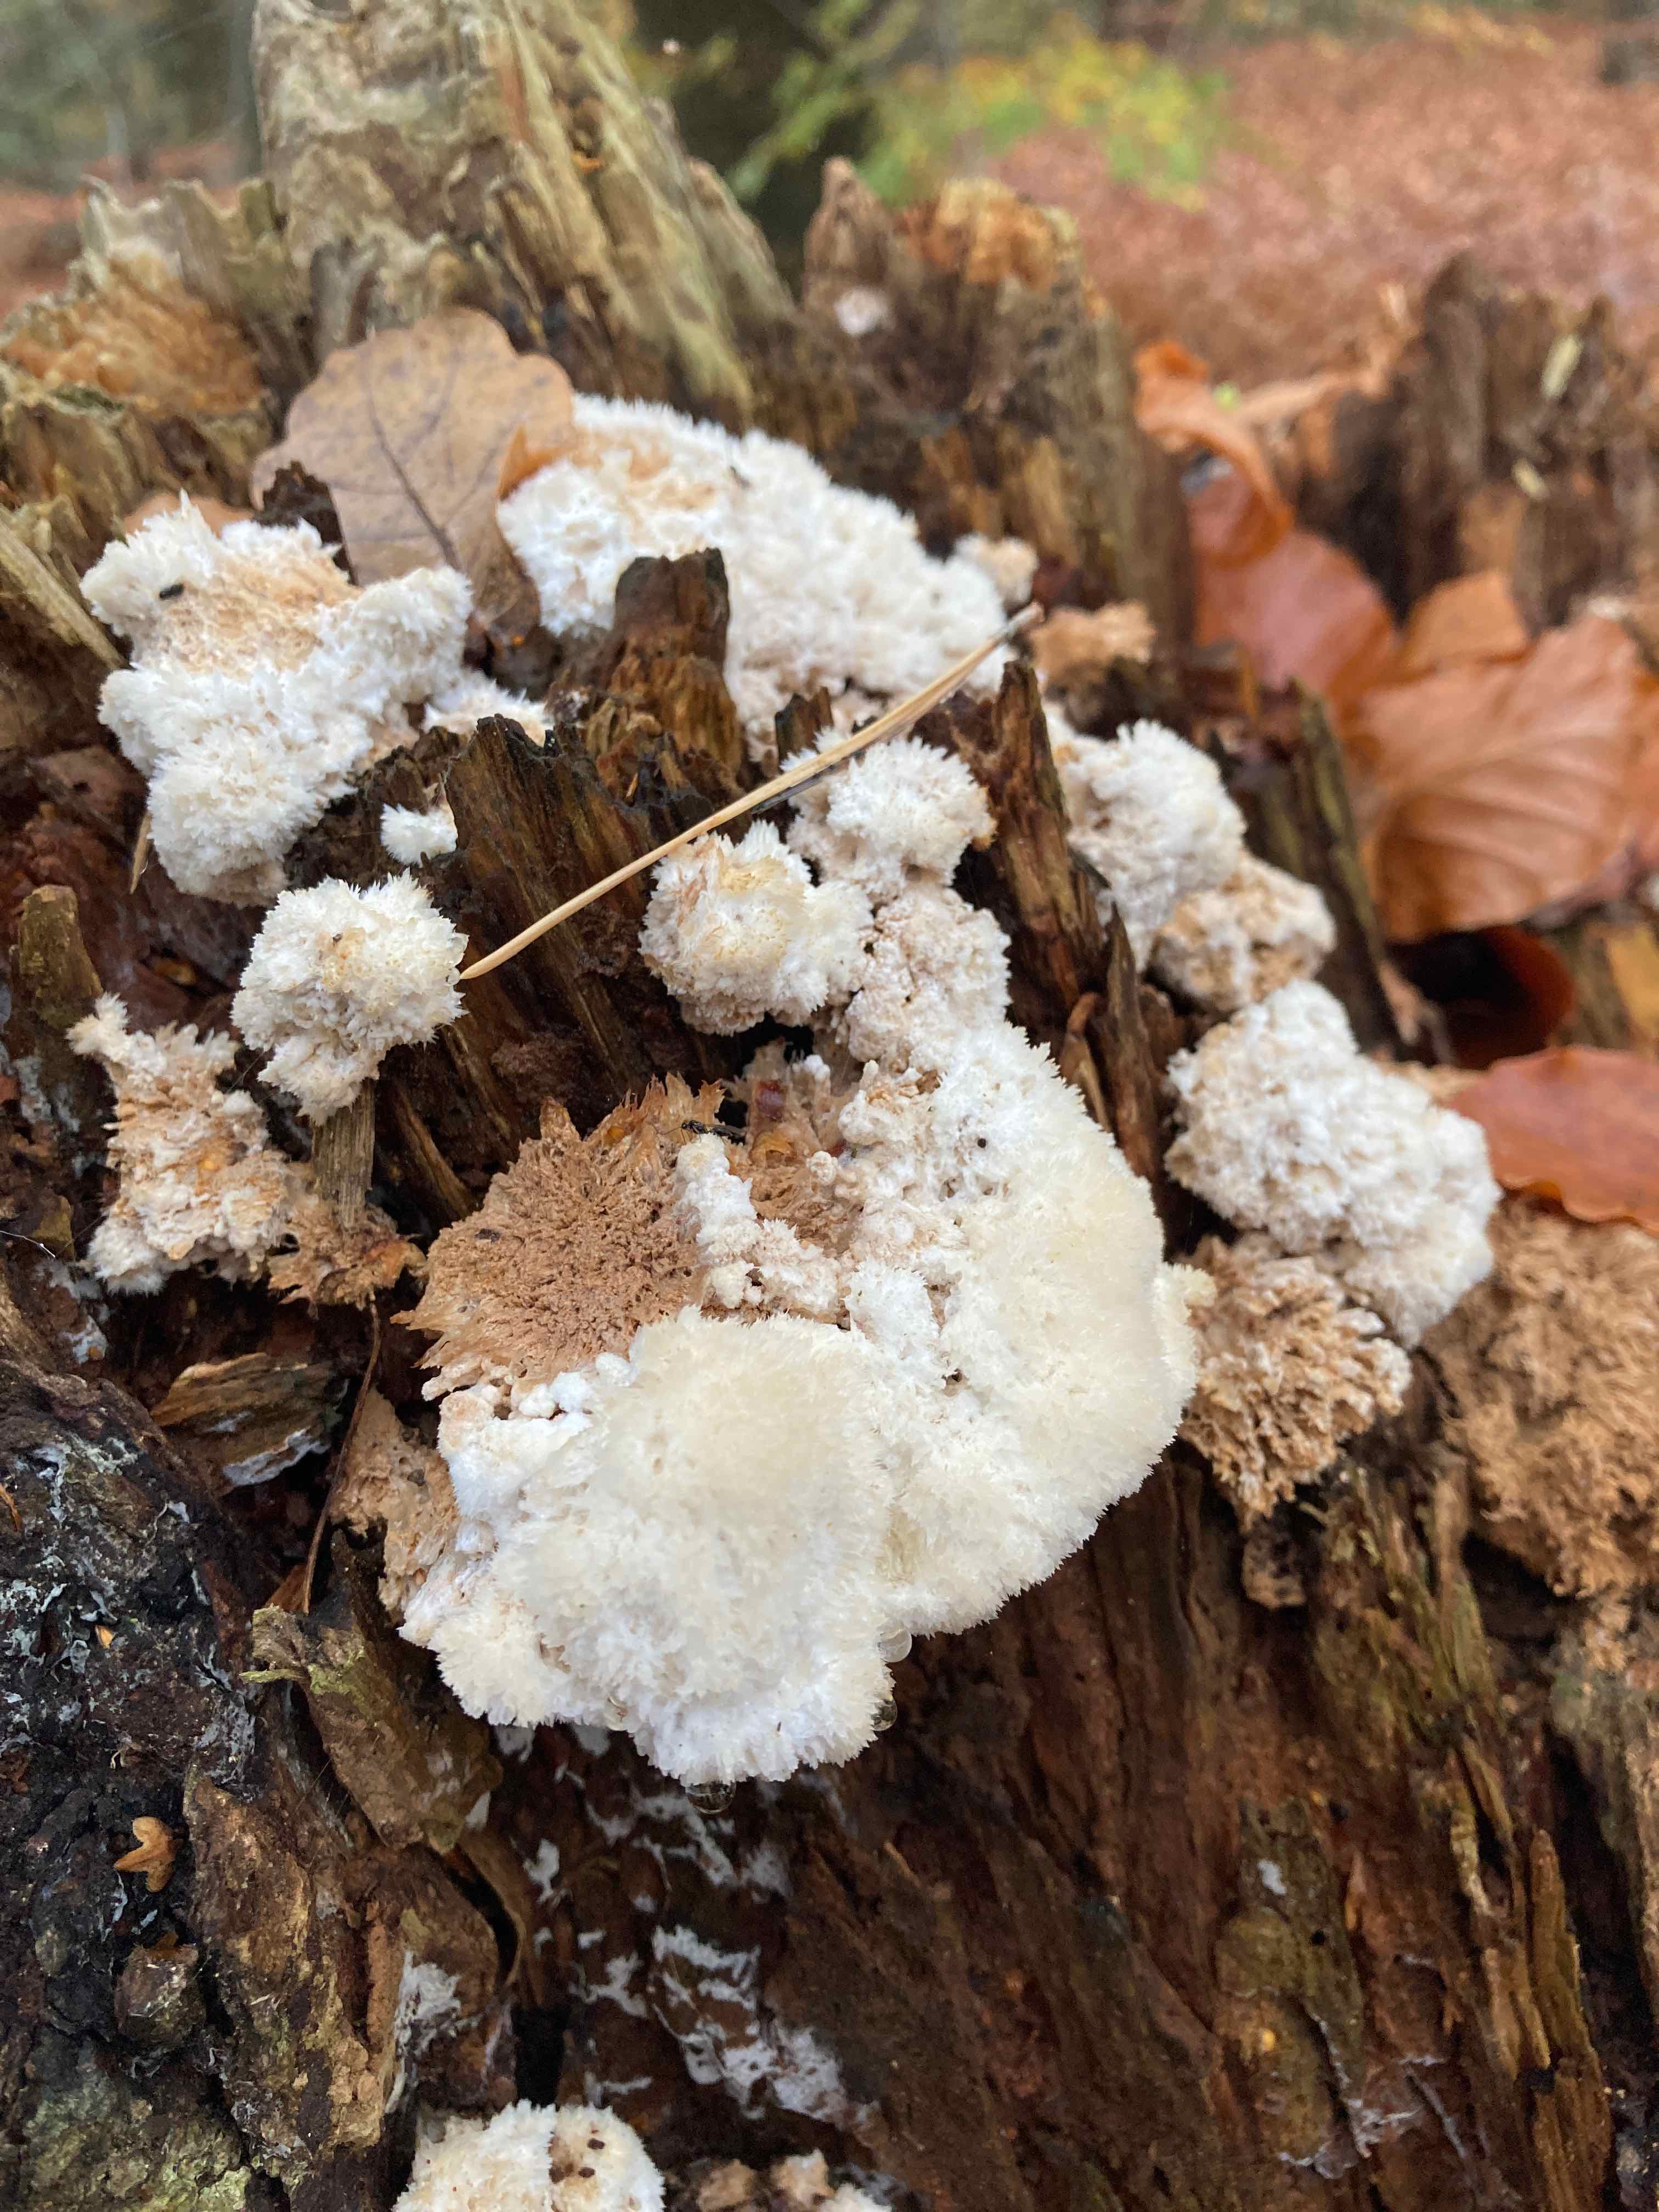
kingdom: Fungi
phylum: Basidiomycota
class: Agaricomycetes
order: Polyporales
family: Dacryobolaceae
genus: Postia
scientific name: Postia ptychogaster
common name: støvende kødporesvamp
